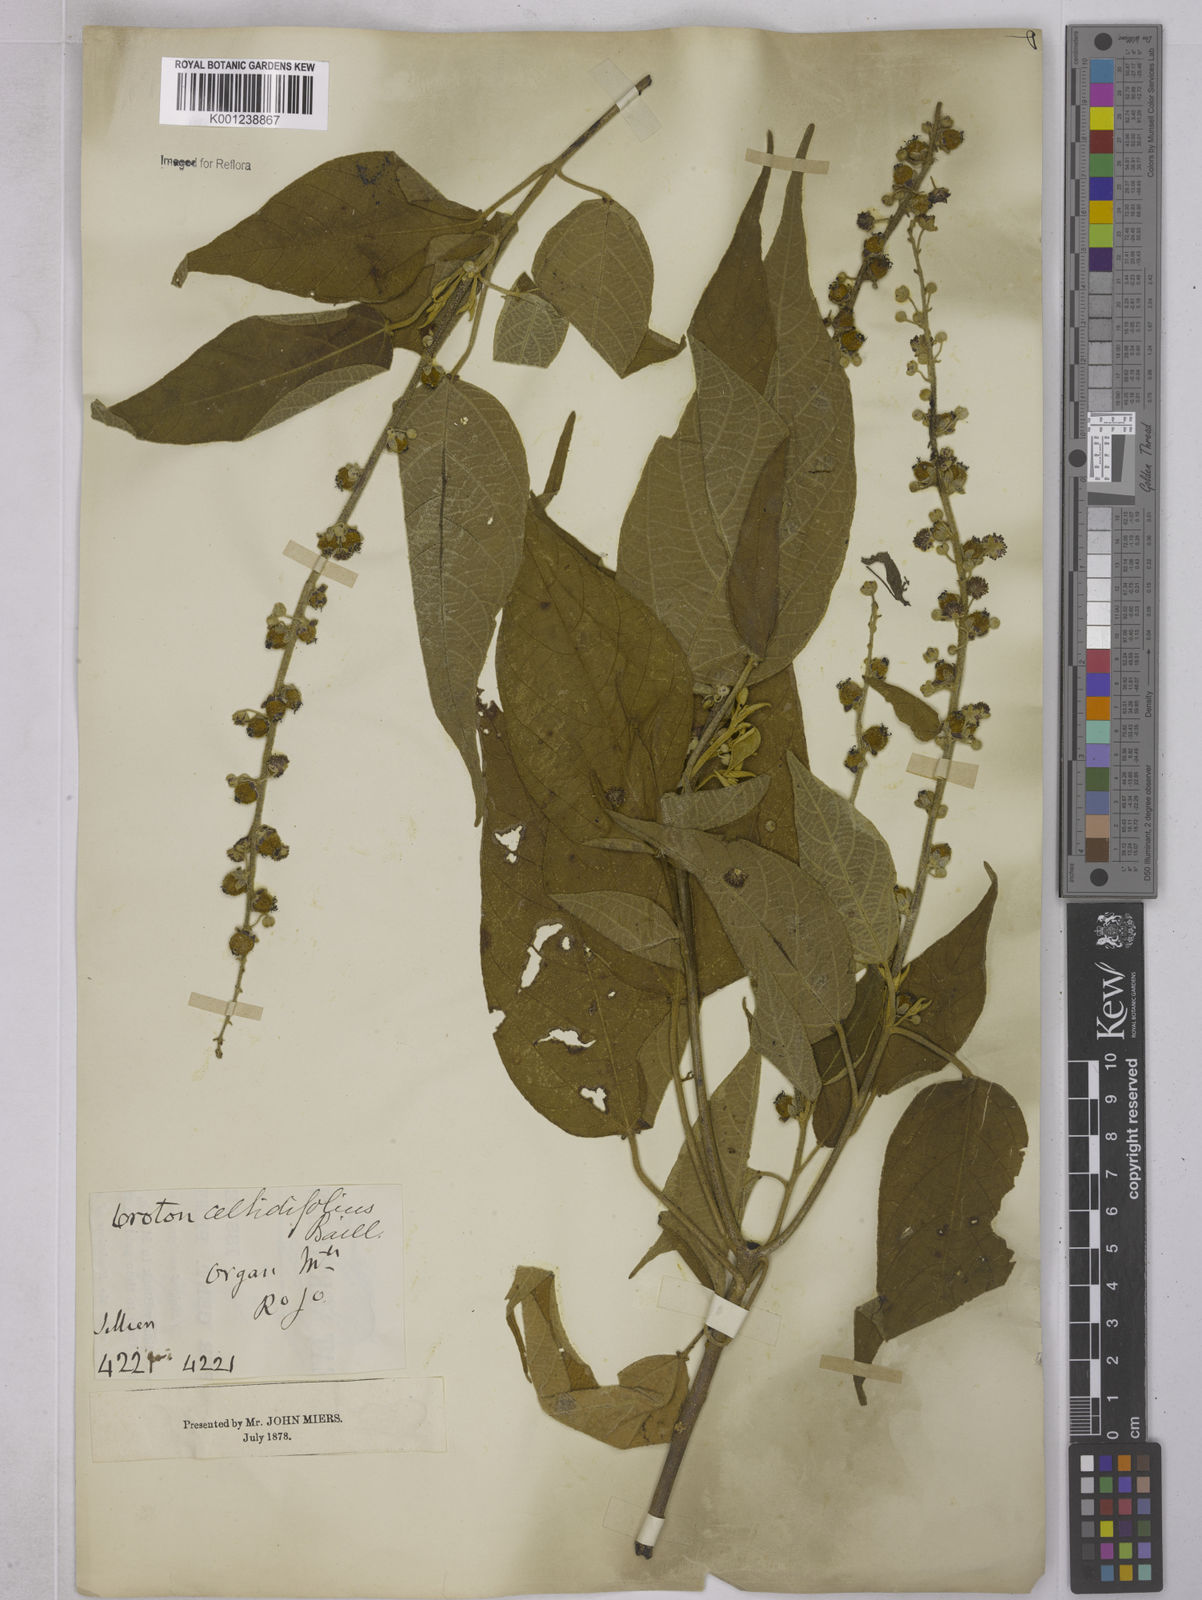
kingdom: Plantae
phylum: Tracheophyta
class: Magnoliopsida
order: Malpighiales
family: Euphorbiaceae
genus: Croton
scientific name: Croton celtidifolius
